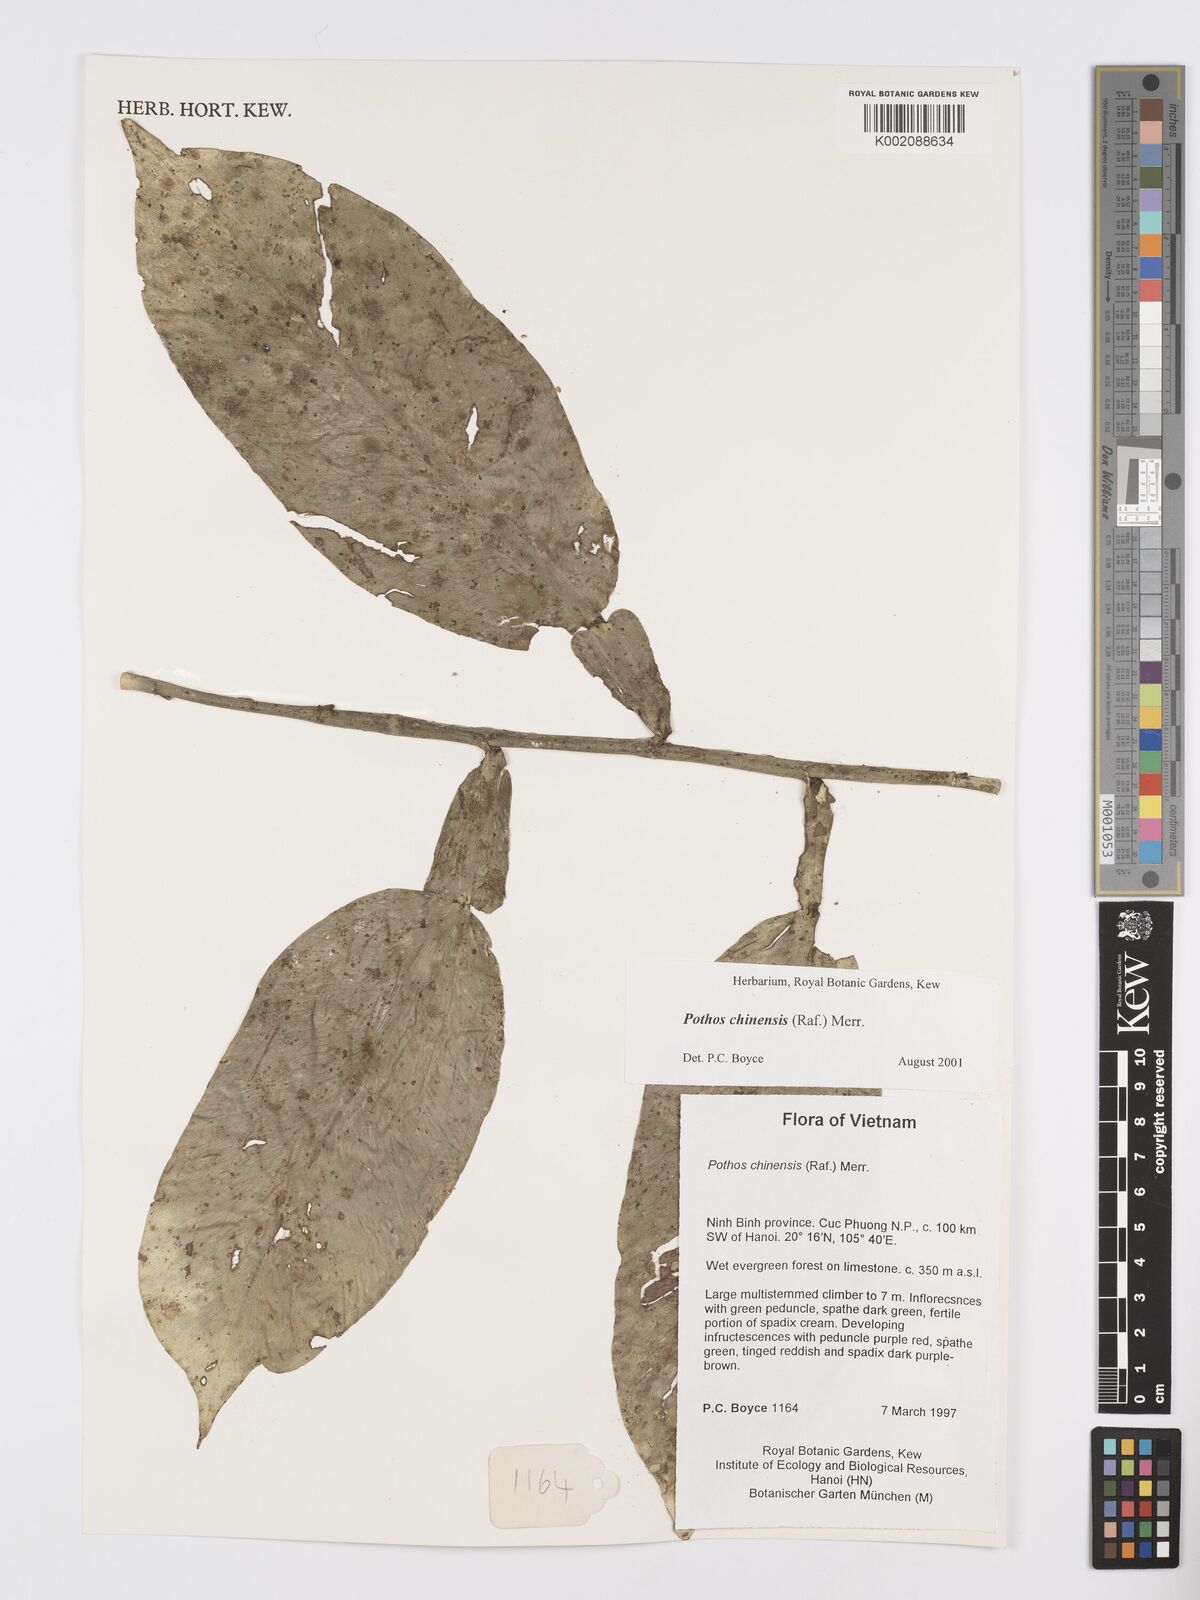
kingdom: Plantae
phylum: Tracheophyta
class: Liliopsida
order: Alismatales
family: Araceae
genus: Pothos
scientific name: Pothos chinensis
